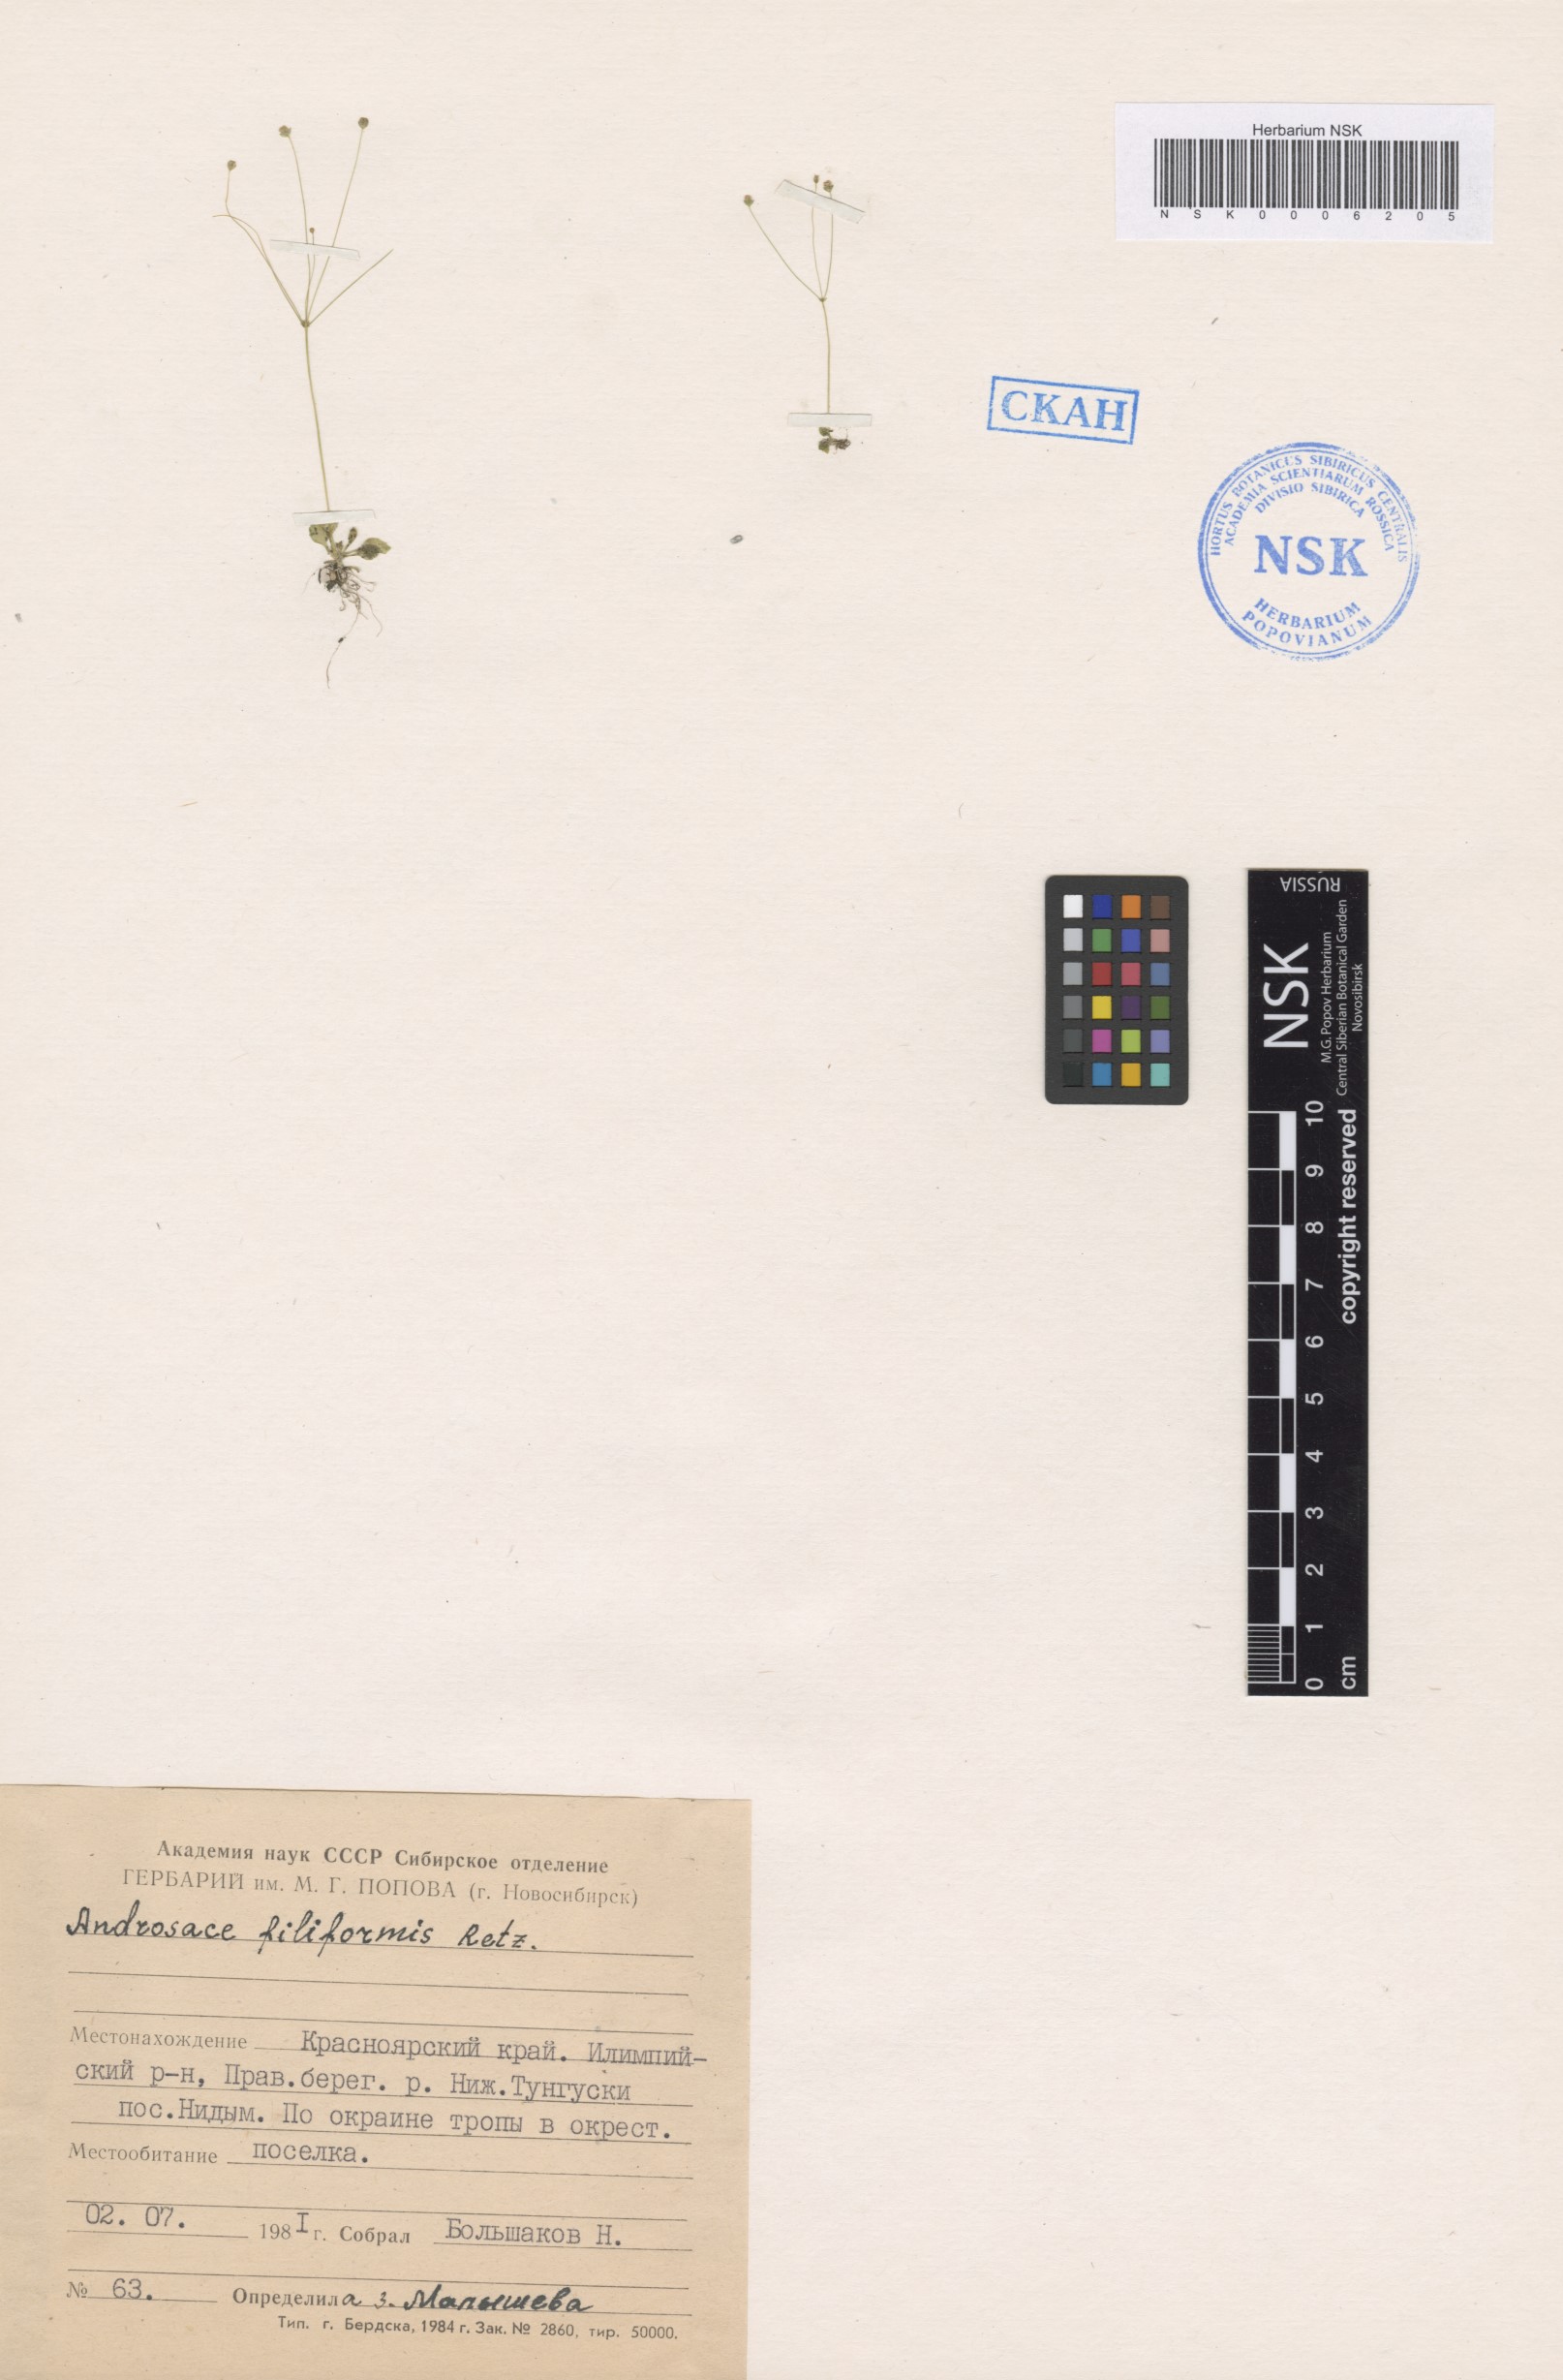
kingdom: Plantae
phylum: Tracheophyta
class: Magnoliopsida
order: Ericales
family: Primulaceae
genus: Androsace
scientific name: Androsace filiformis
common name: Filiform rock jasmine
